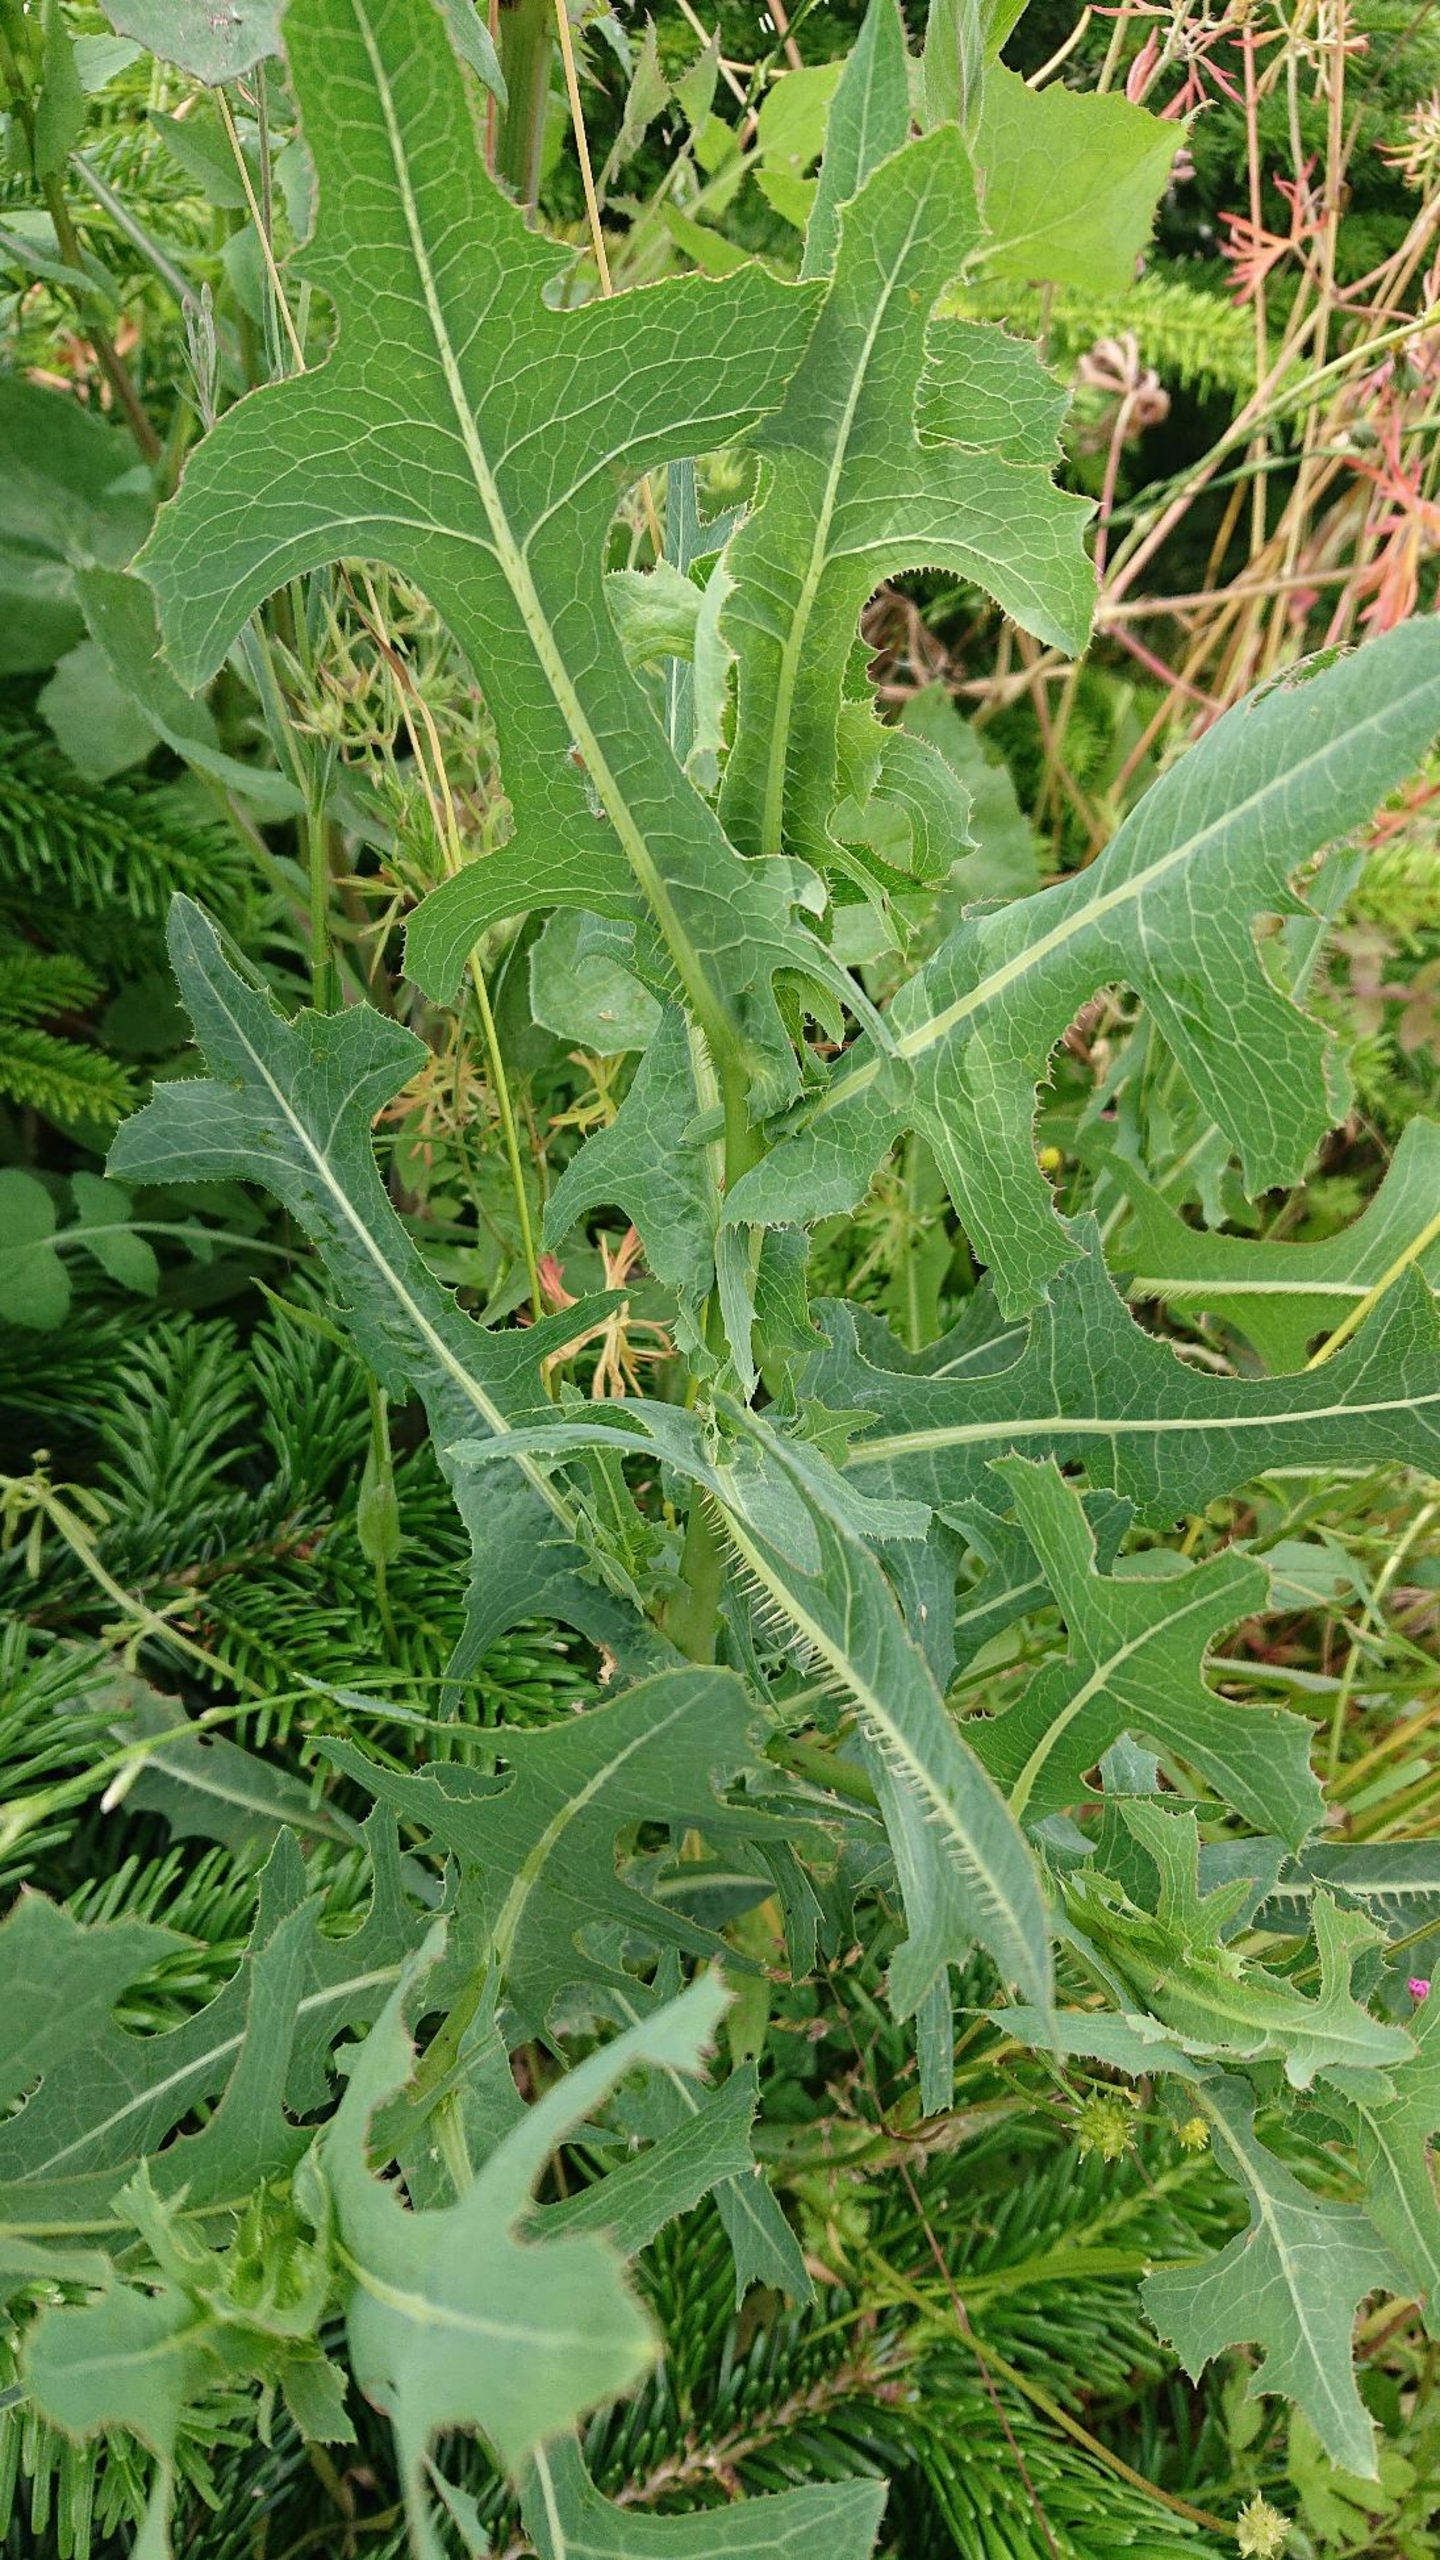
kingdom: Plantae
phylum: Tracheophyta
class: Magnoliopsida
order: Asterales
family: Asteraceae
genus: Lactuca
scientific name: Lactuca serriola
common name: Tornet salat
